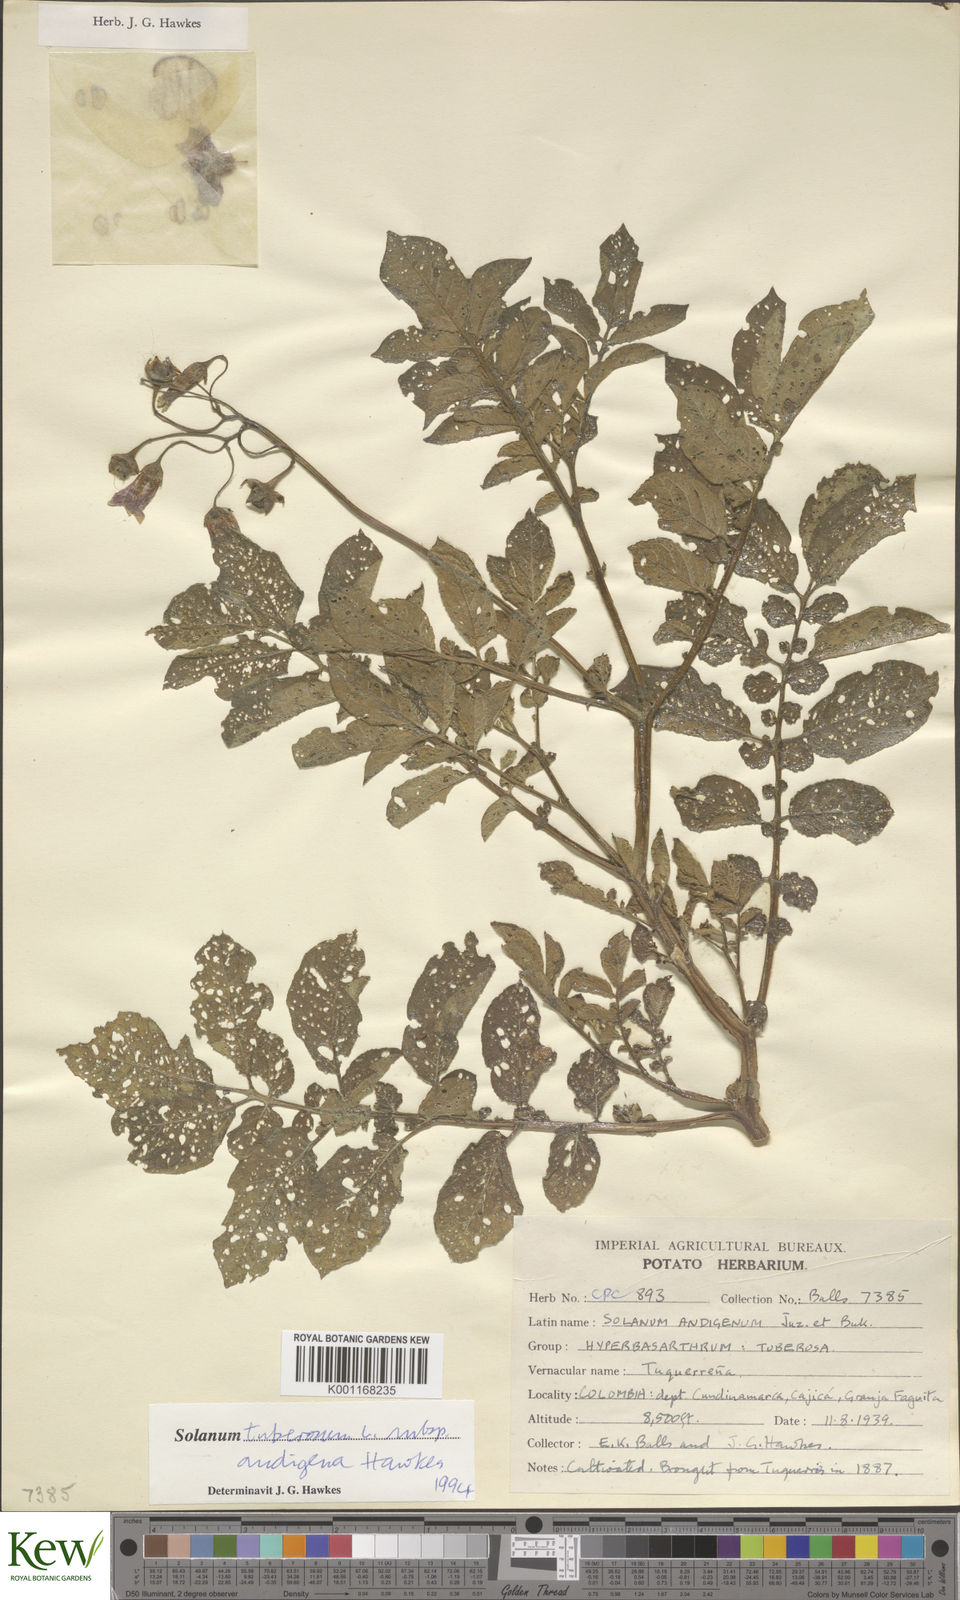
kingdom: Plantae
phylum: Tracheophyta
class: Magnoliopsida
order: Solanales
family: Solanaceae
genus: Solanum
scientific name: Solanum tuberosum
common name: Potato
